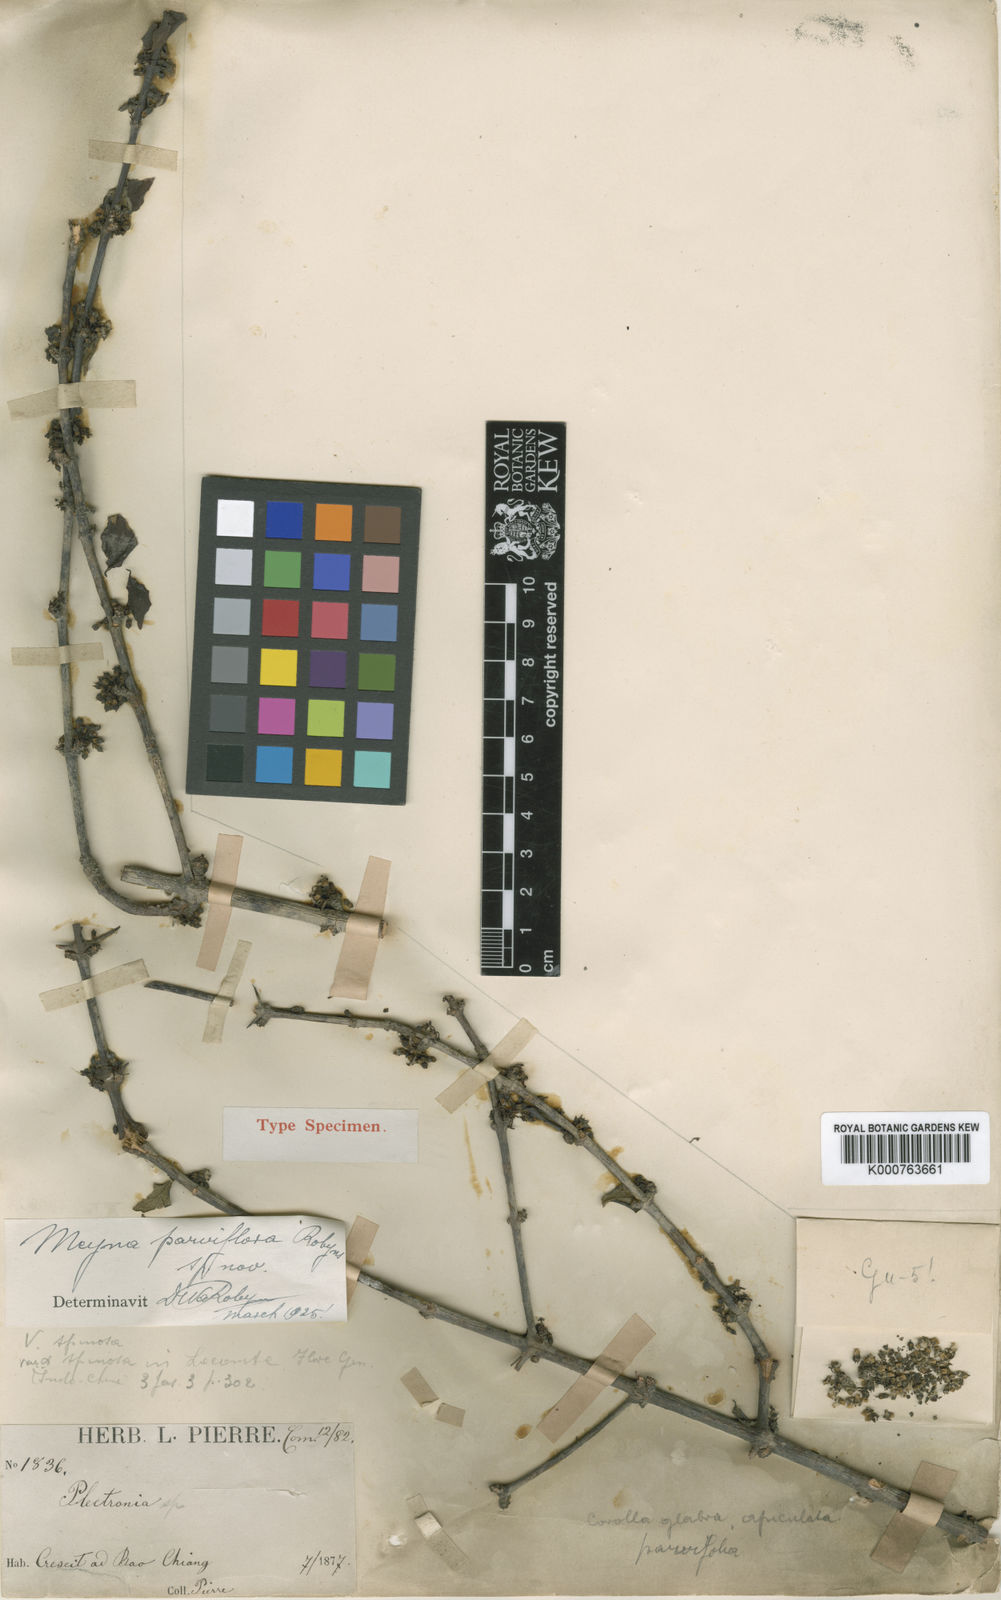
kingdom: Plantae
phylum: Tracheophyta
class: Magnoliopsida
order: Gentianales
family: Rubiaceae
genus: Meyna
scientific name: Meyna parviflora
